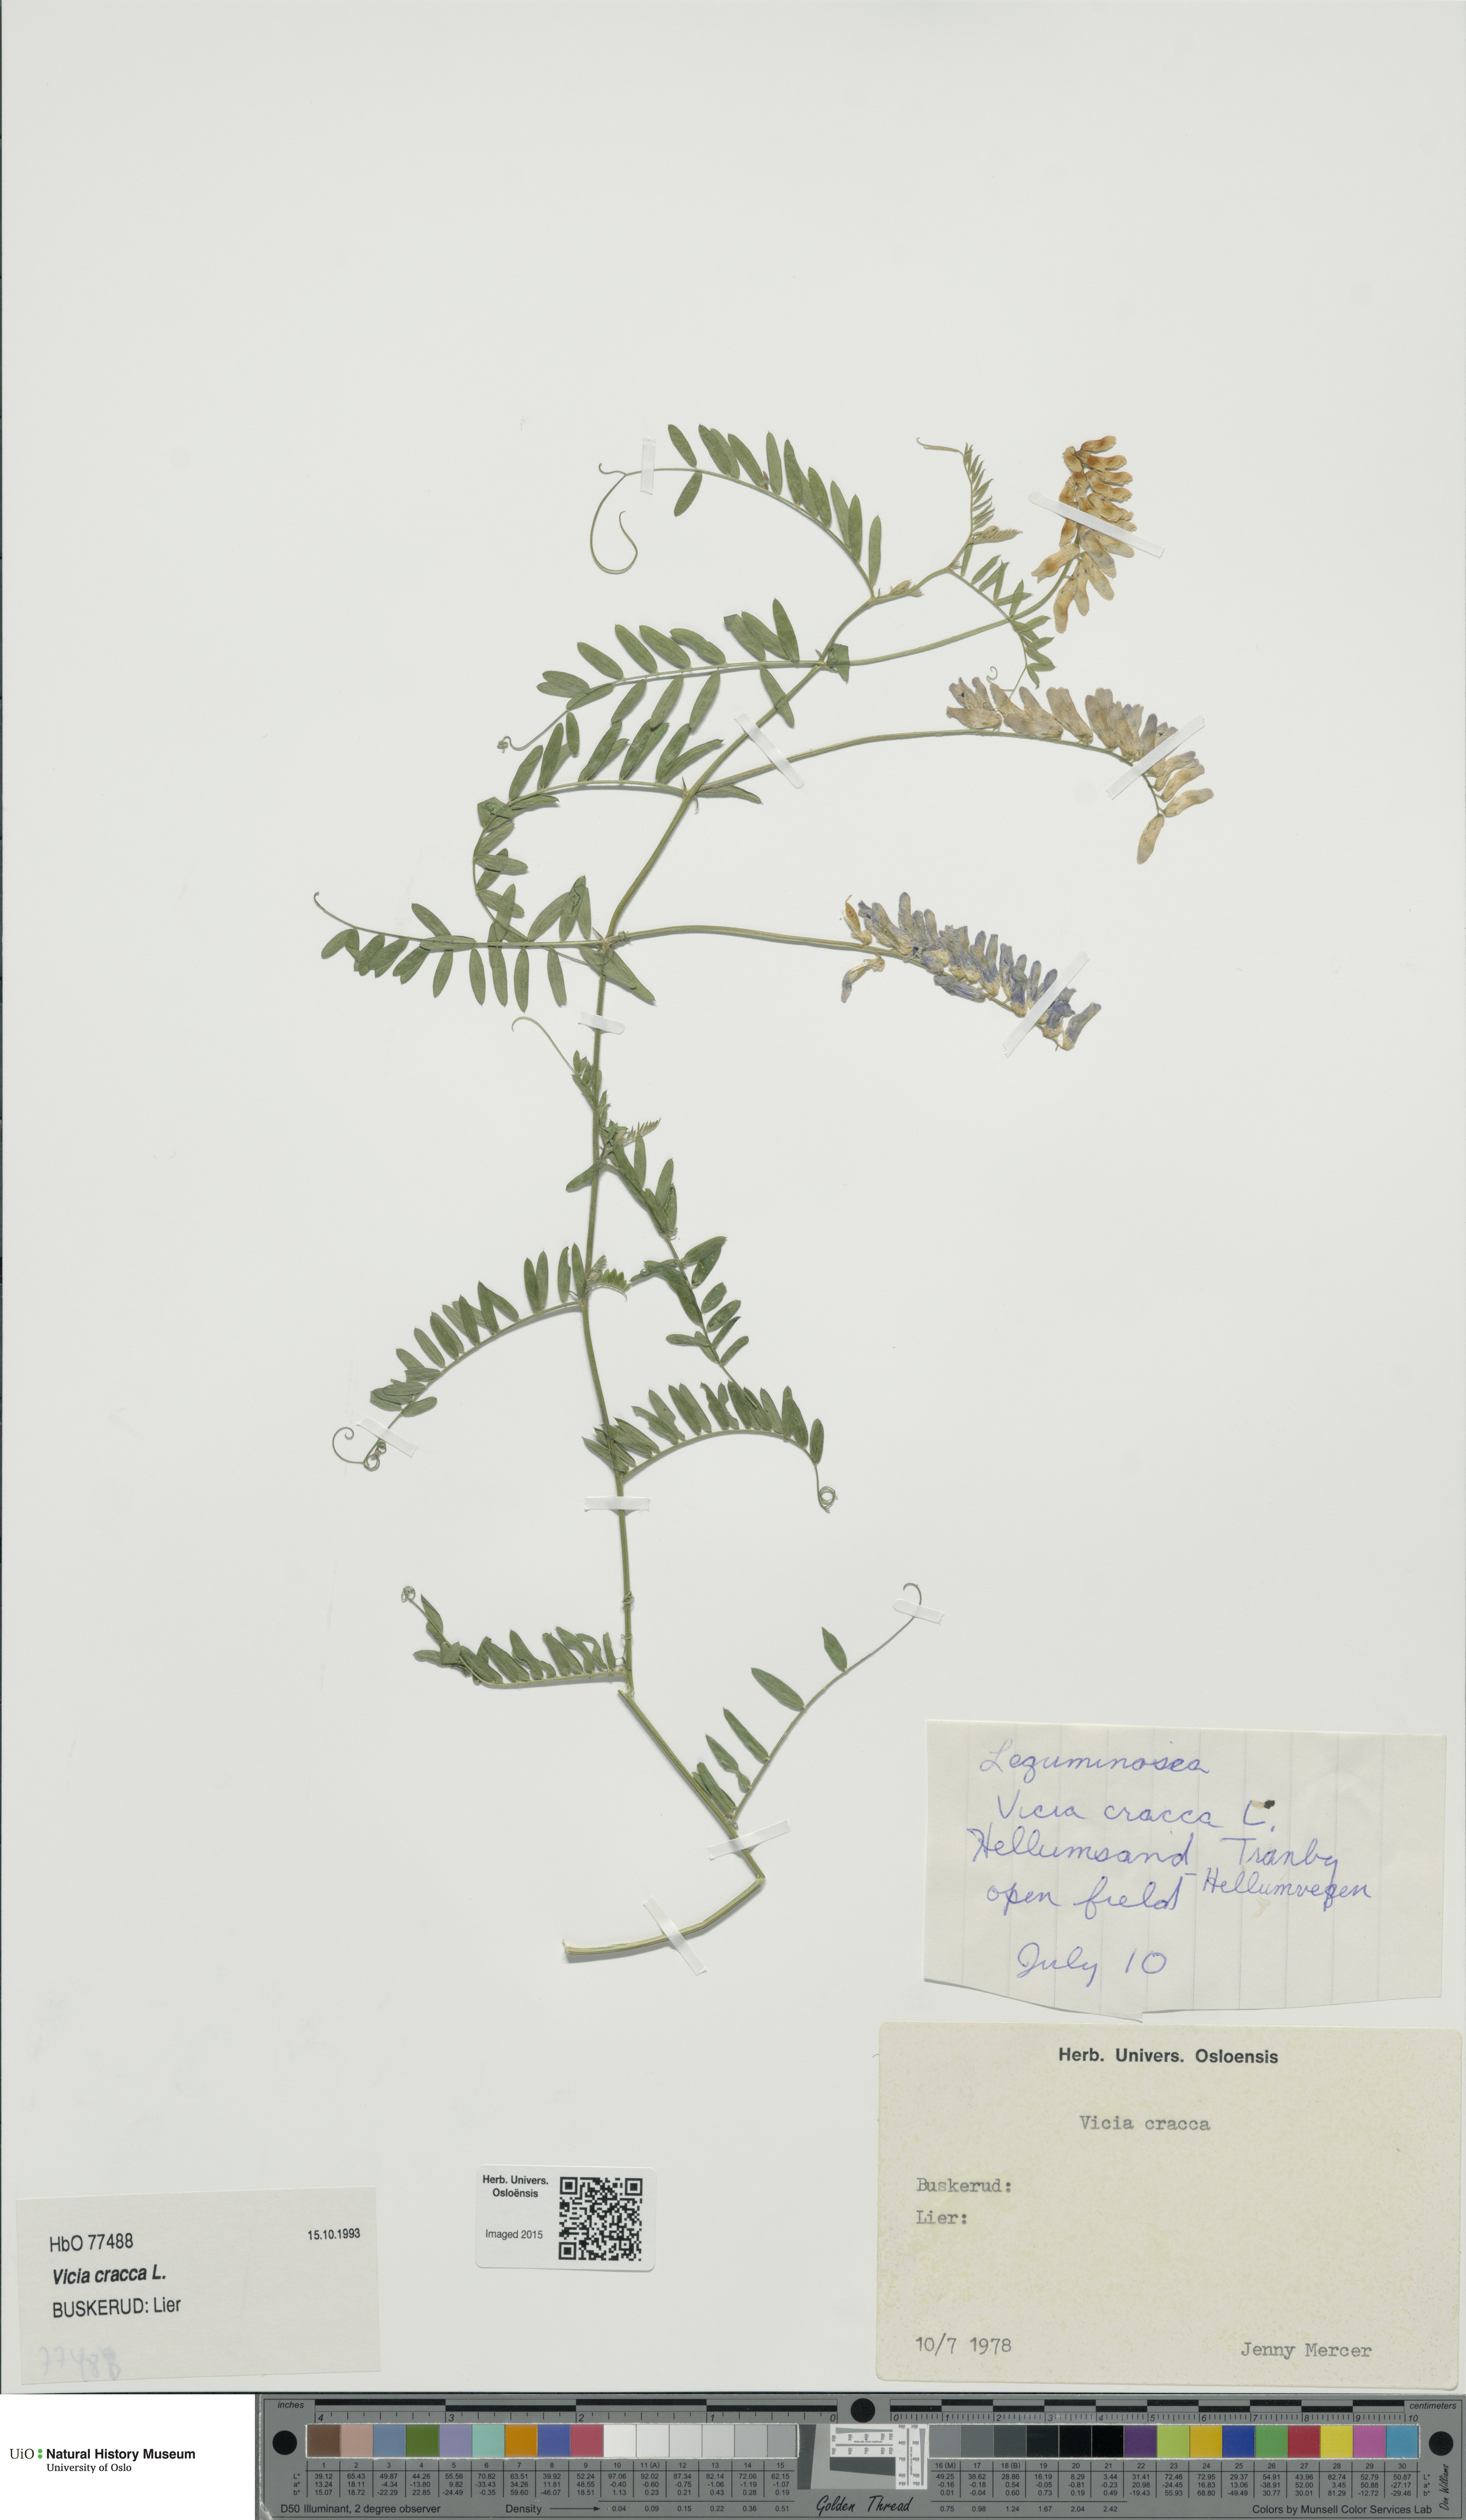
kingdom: Plantae
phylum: Tracheophyta
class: Magnoliopsida
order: Fabales
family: Fabaceae
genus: Vicia
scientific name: Vicia cracca
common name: Bird vetch
